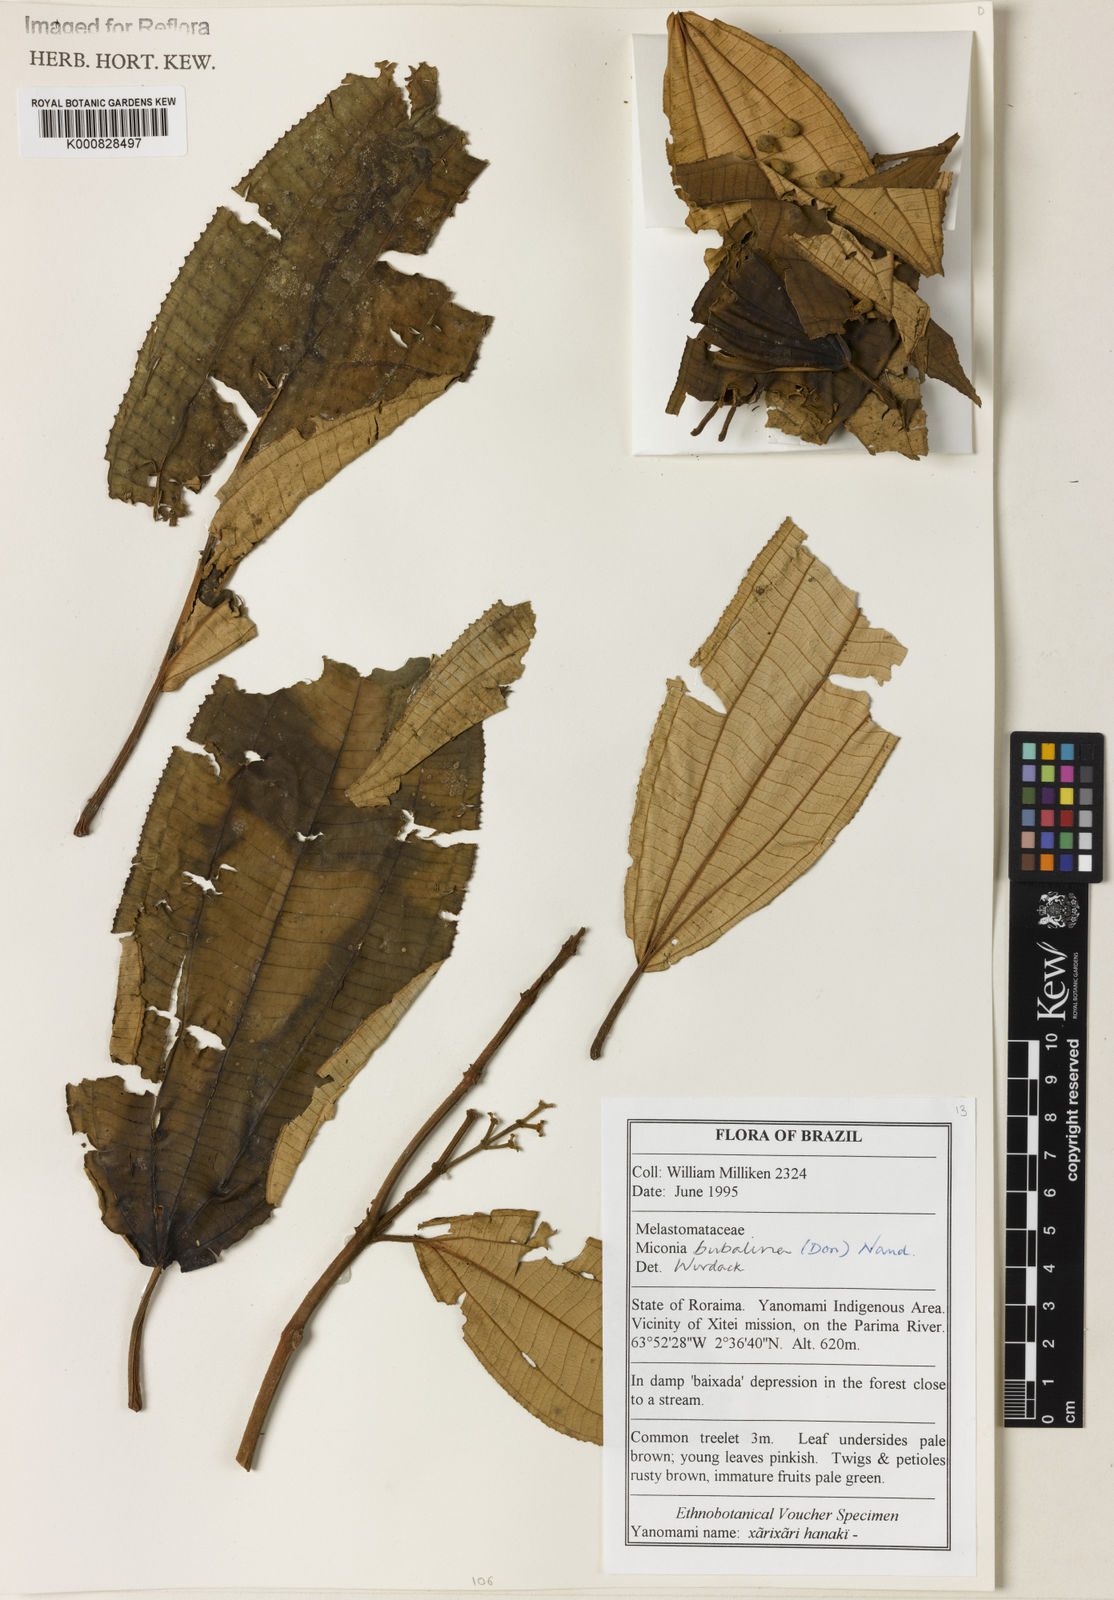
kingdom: Plantae
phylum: Tracheophyta
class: Magnoliopsida
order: Myrtales
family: Melastomataceae
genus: Miconia
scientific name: Miconia bubalina
